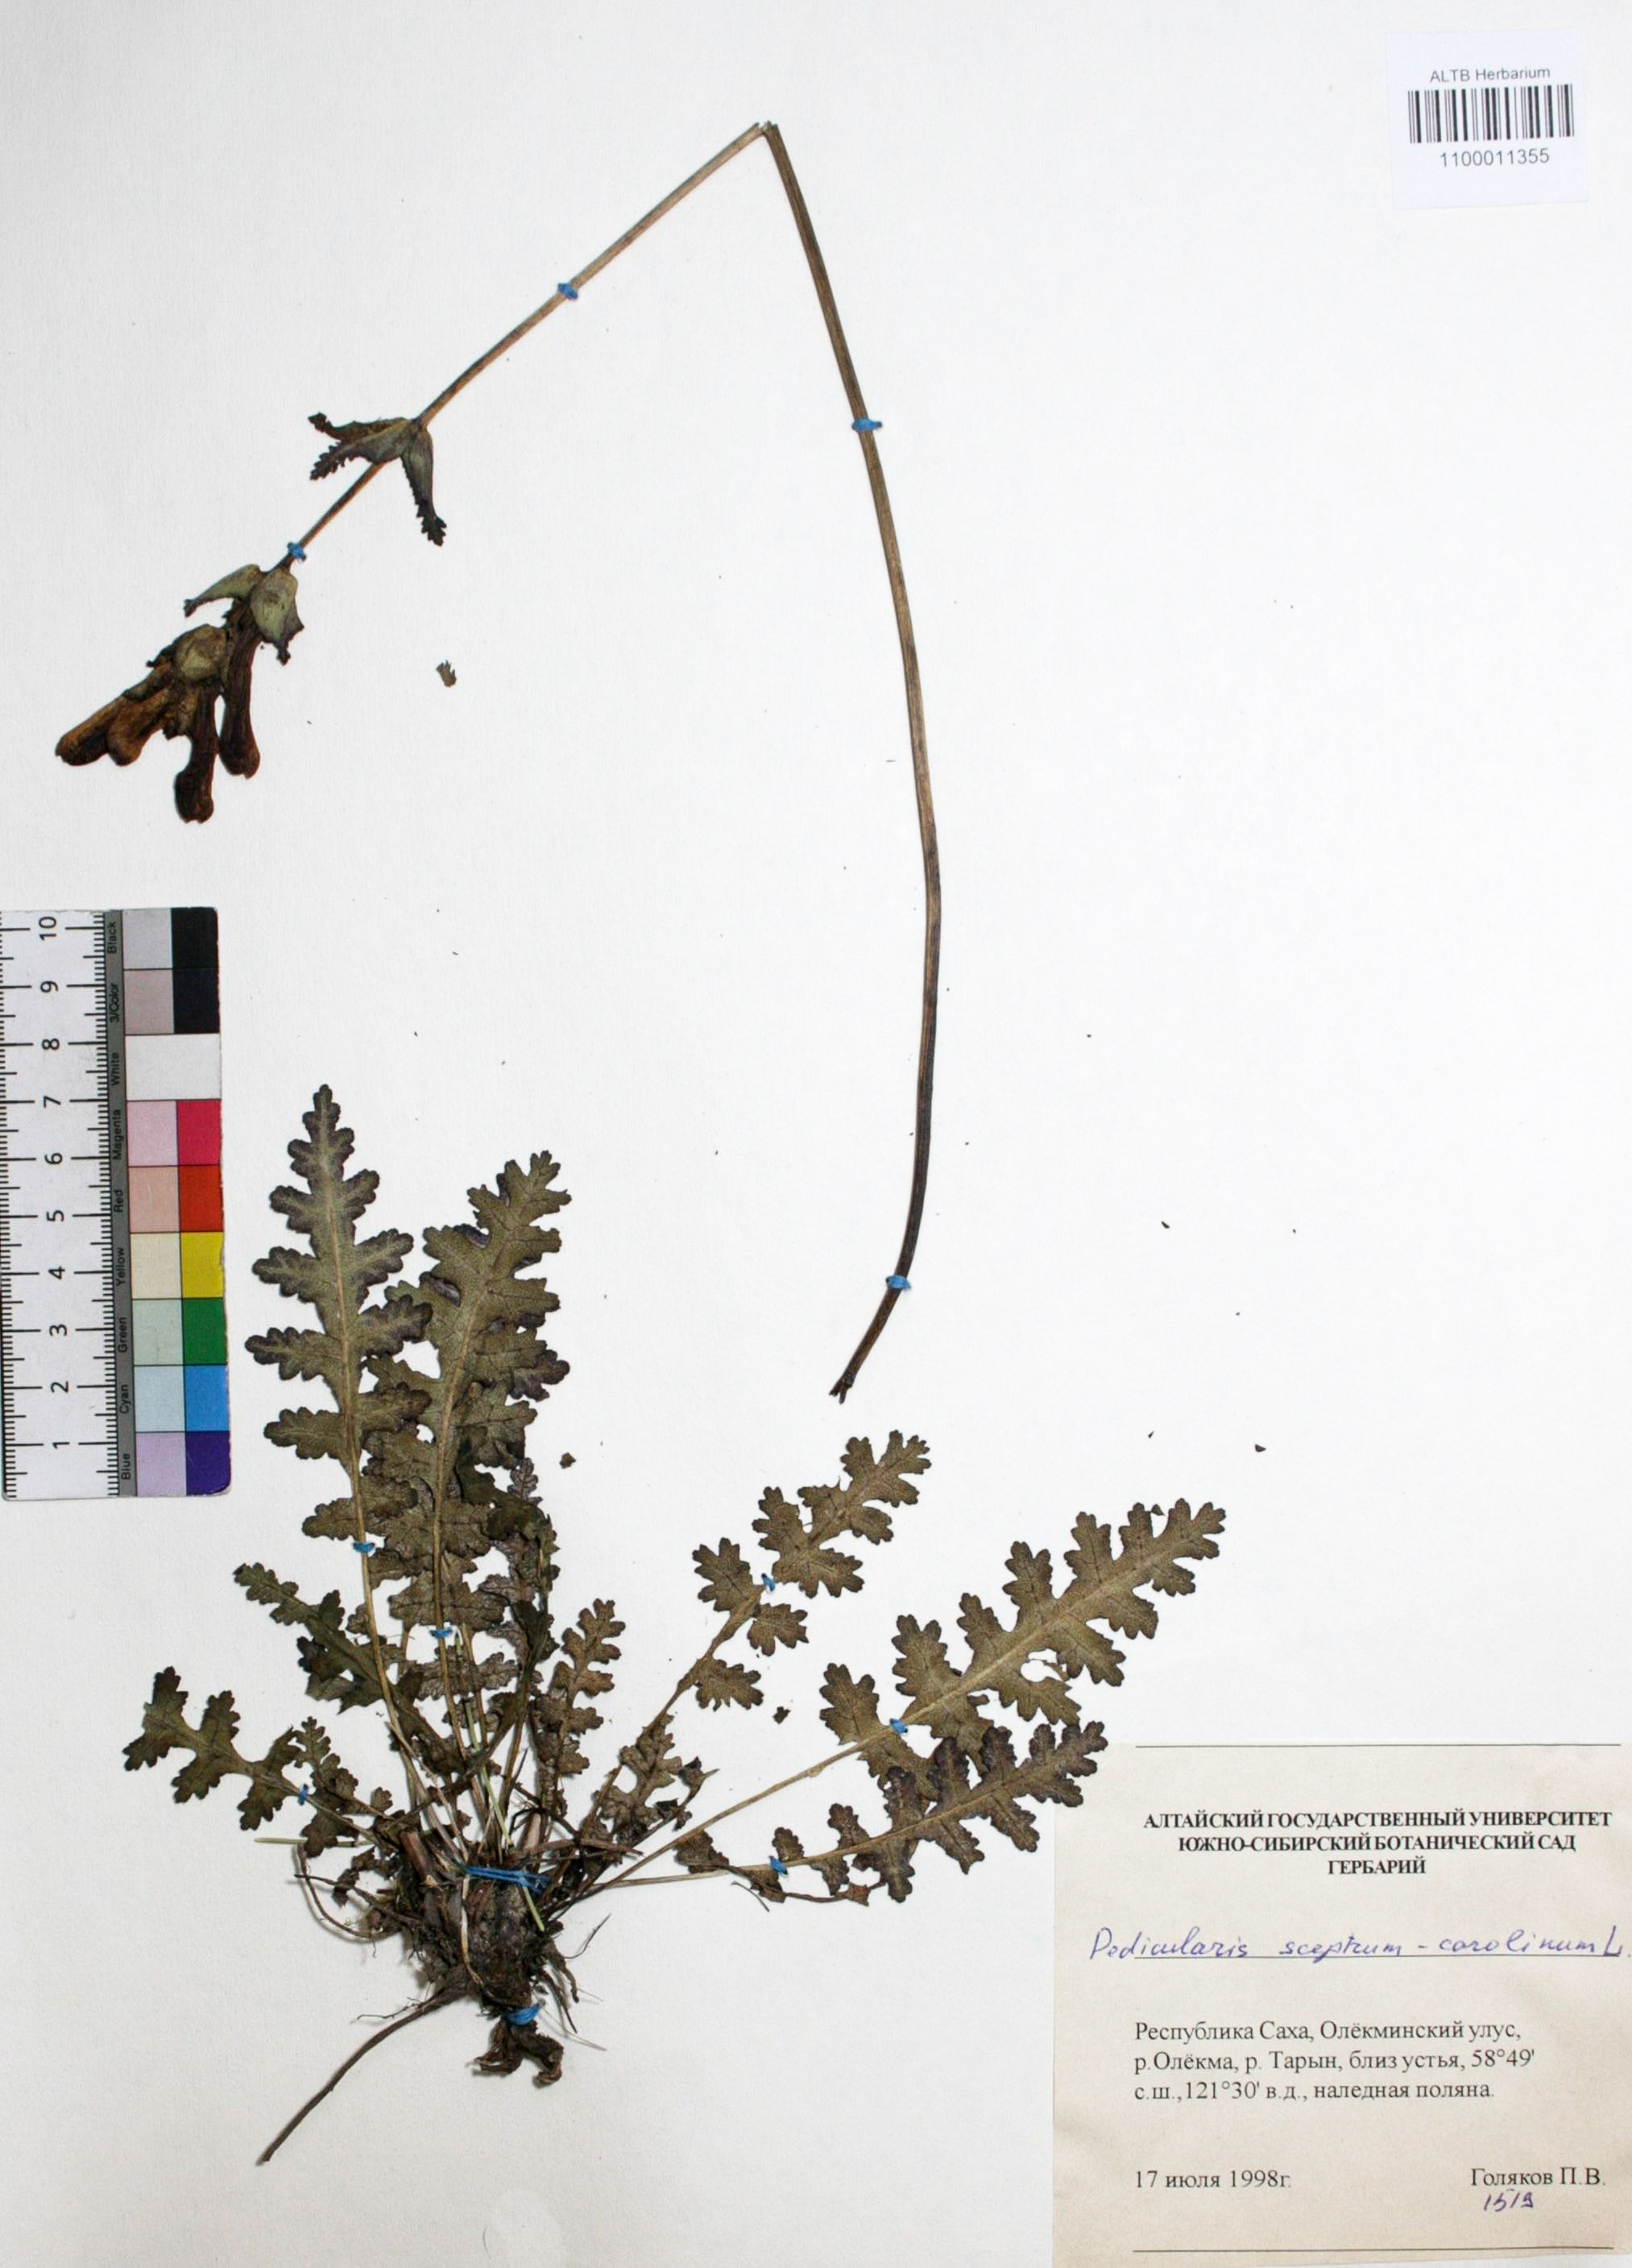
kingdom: Plantae
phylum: Tracheophyta
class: Magnoliopsida
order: Lamiales
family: Orobanchaceae
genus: Pedicularis
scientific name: Pedicularis sceptrum-carolinum
